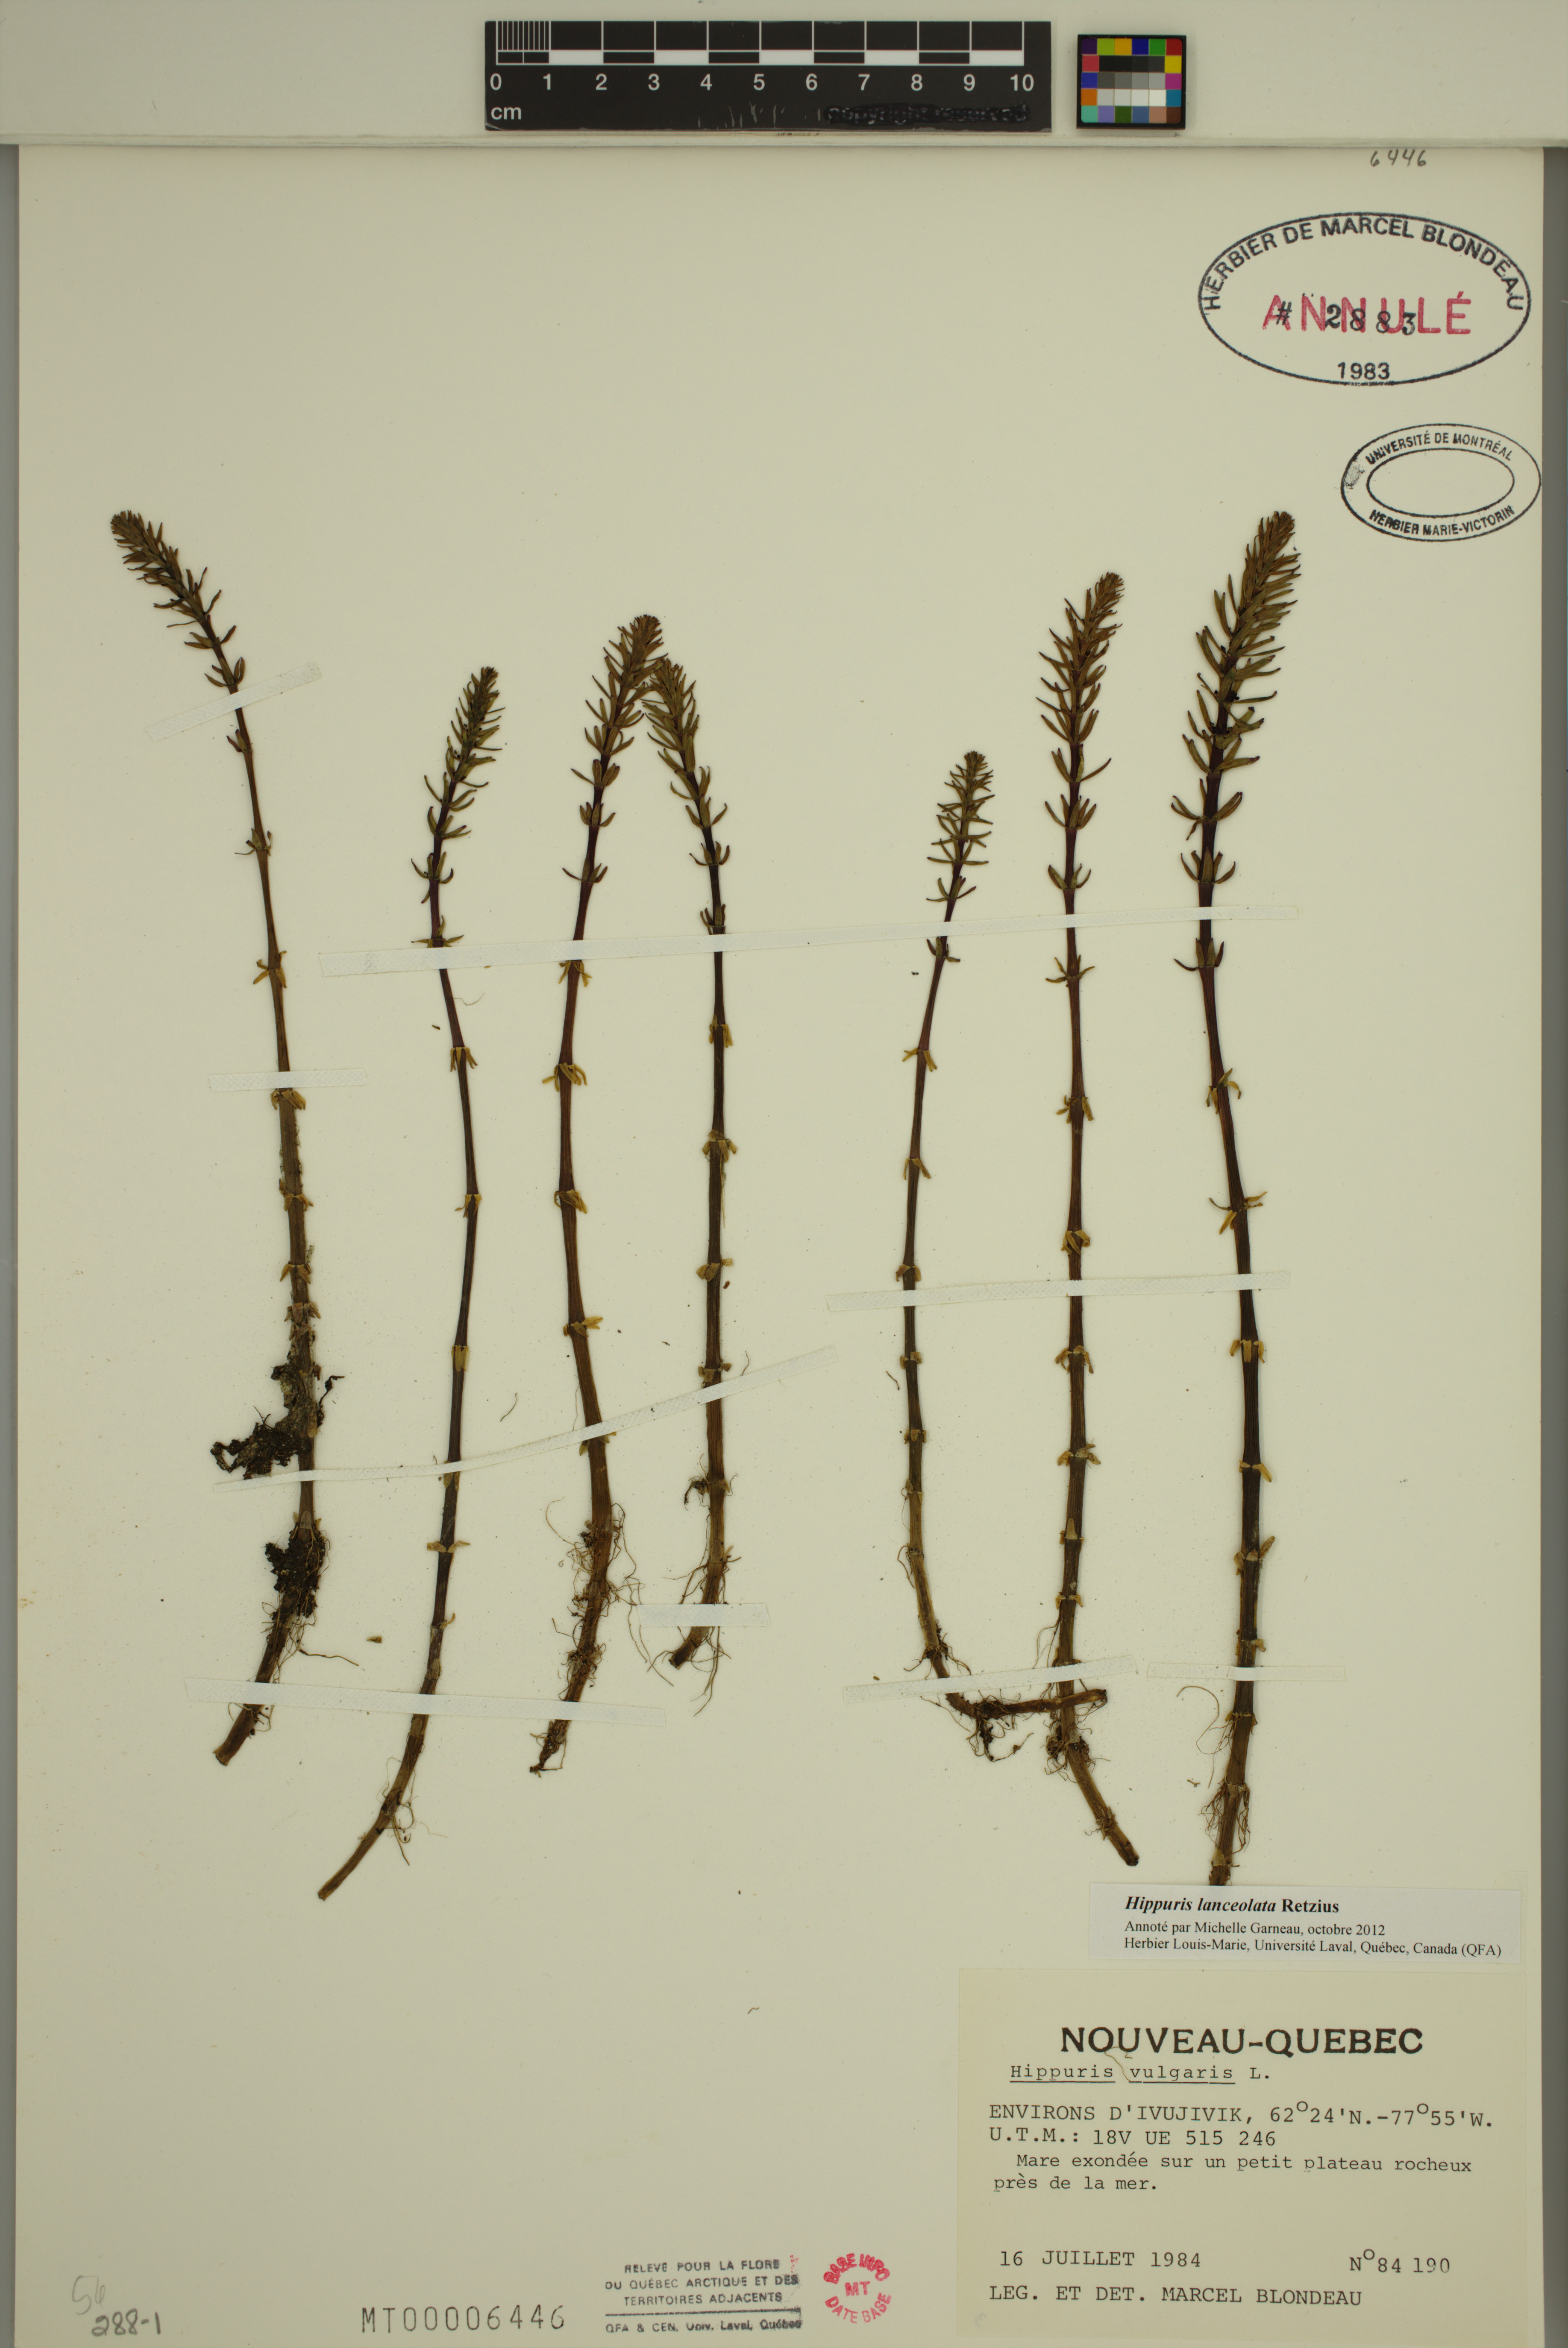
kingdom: Plantae
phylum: Tracheophyta
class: Magnoliopsida
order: Lamiales
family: Plantaginaceae
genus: Hippuris
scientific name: Hippuris lanceolata
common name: Lance-leaved mare's-tail
